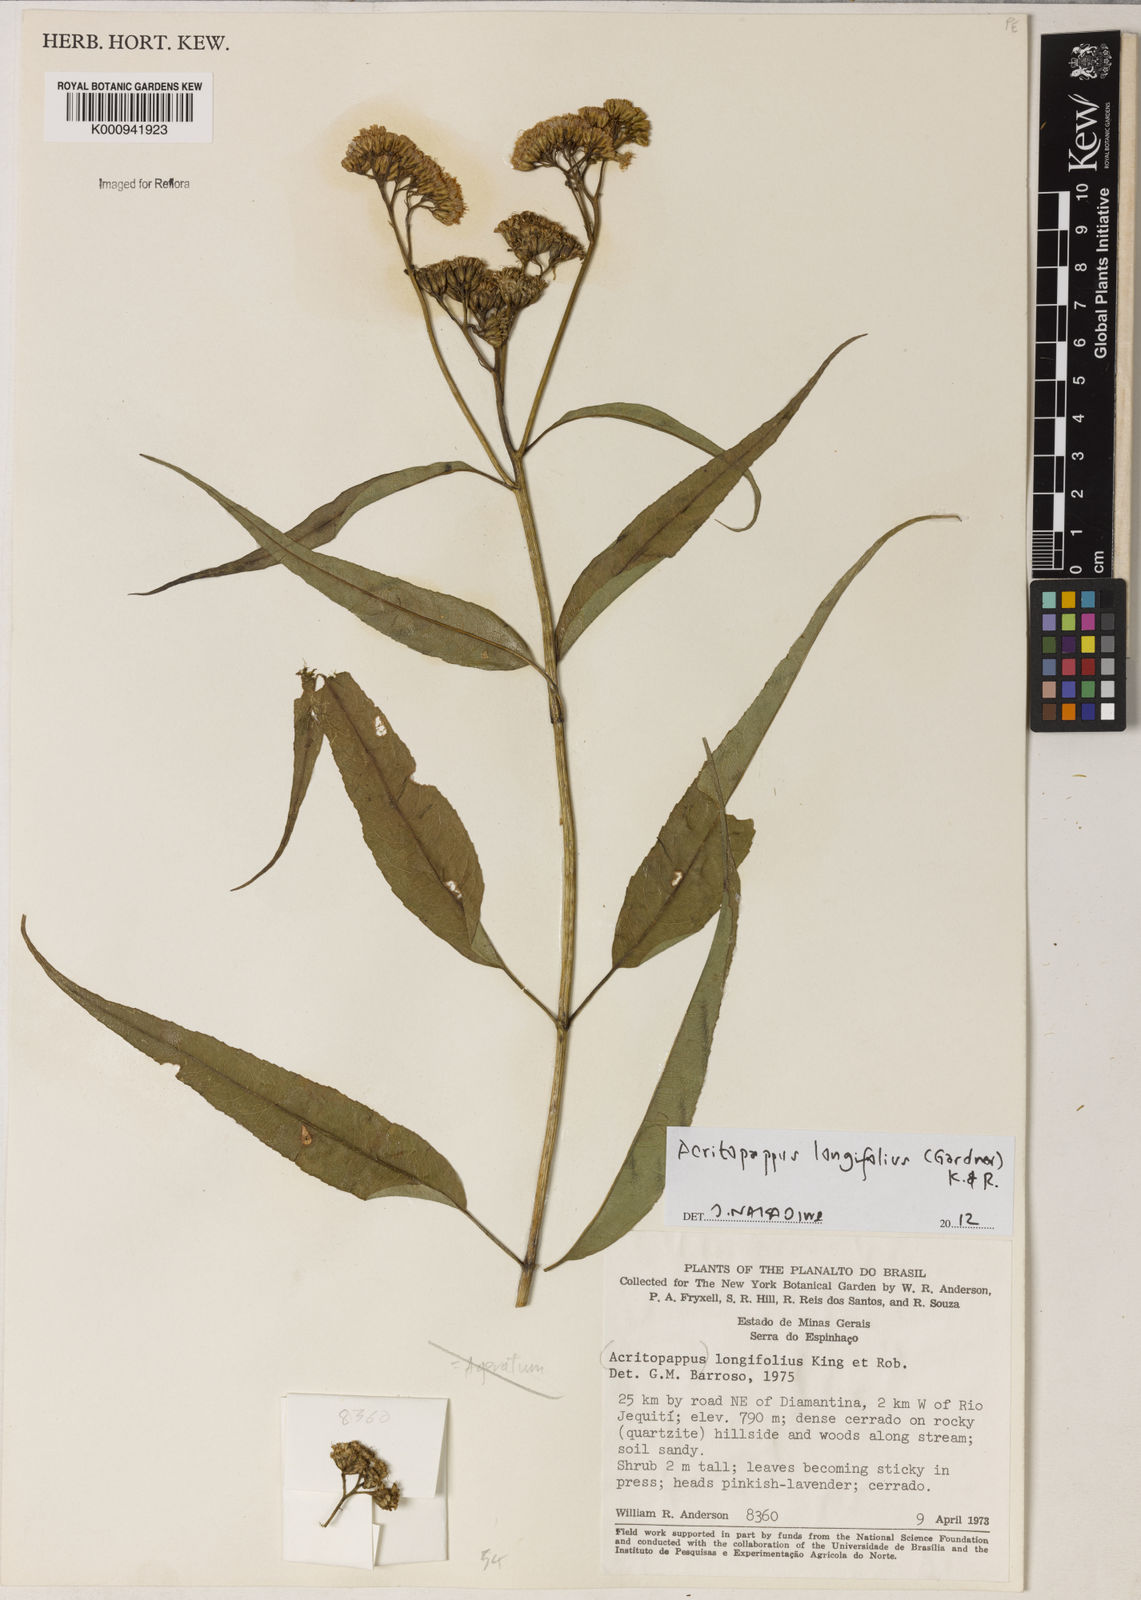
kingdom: Plantae
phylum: Tracheophyta
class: Magnoliopsida
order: Asterales
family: Asteraceae
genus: Acritopappus
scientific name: Acritopappus longifolius
